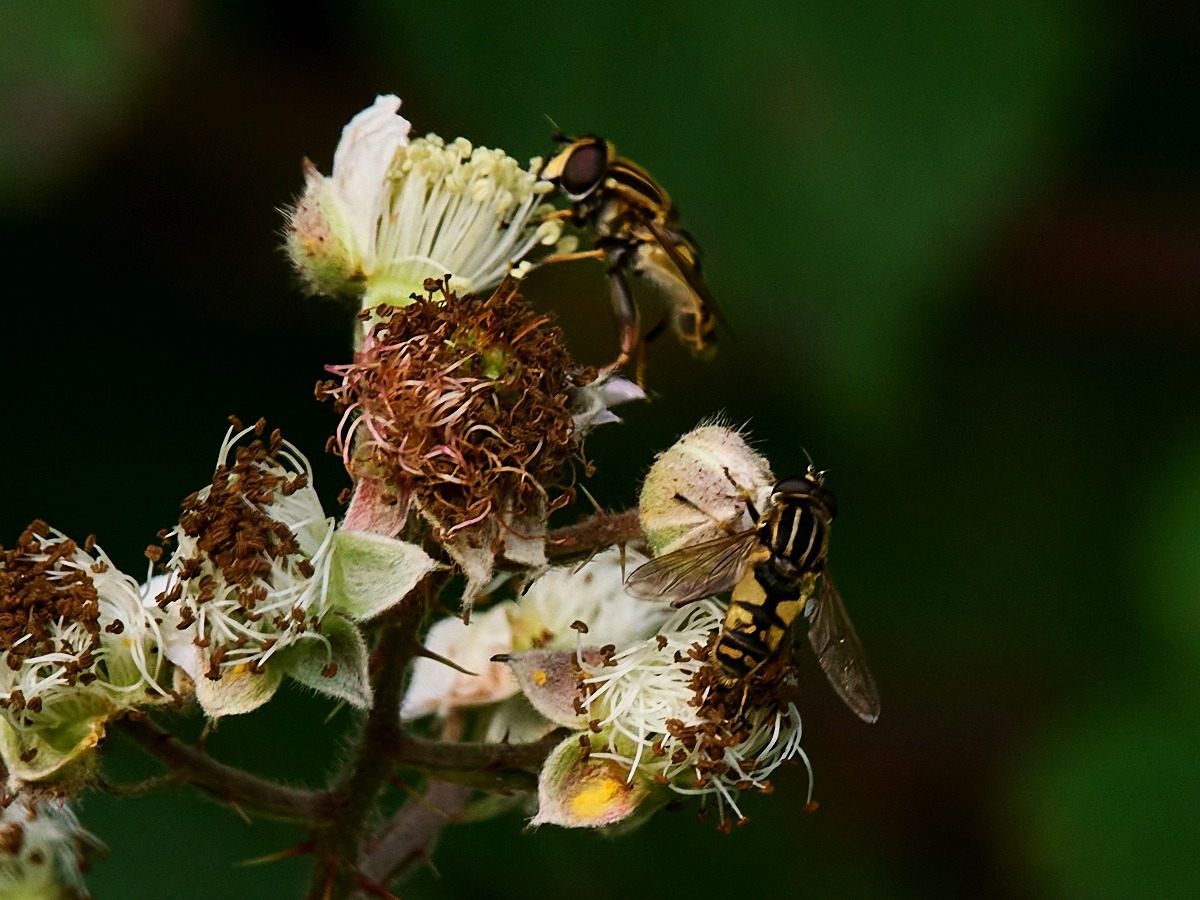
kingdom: Animalia
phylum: Arthropoda
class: Insecta
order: Diptera
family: Syrphidae
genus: Helophilus
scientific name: Helophilus pendulus
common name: Almindelig sumpsvirreflue
